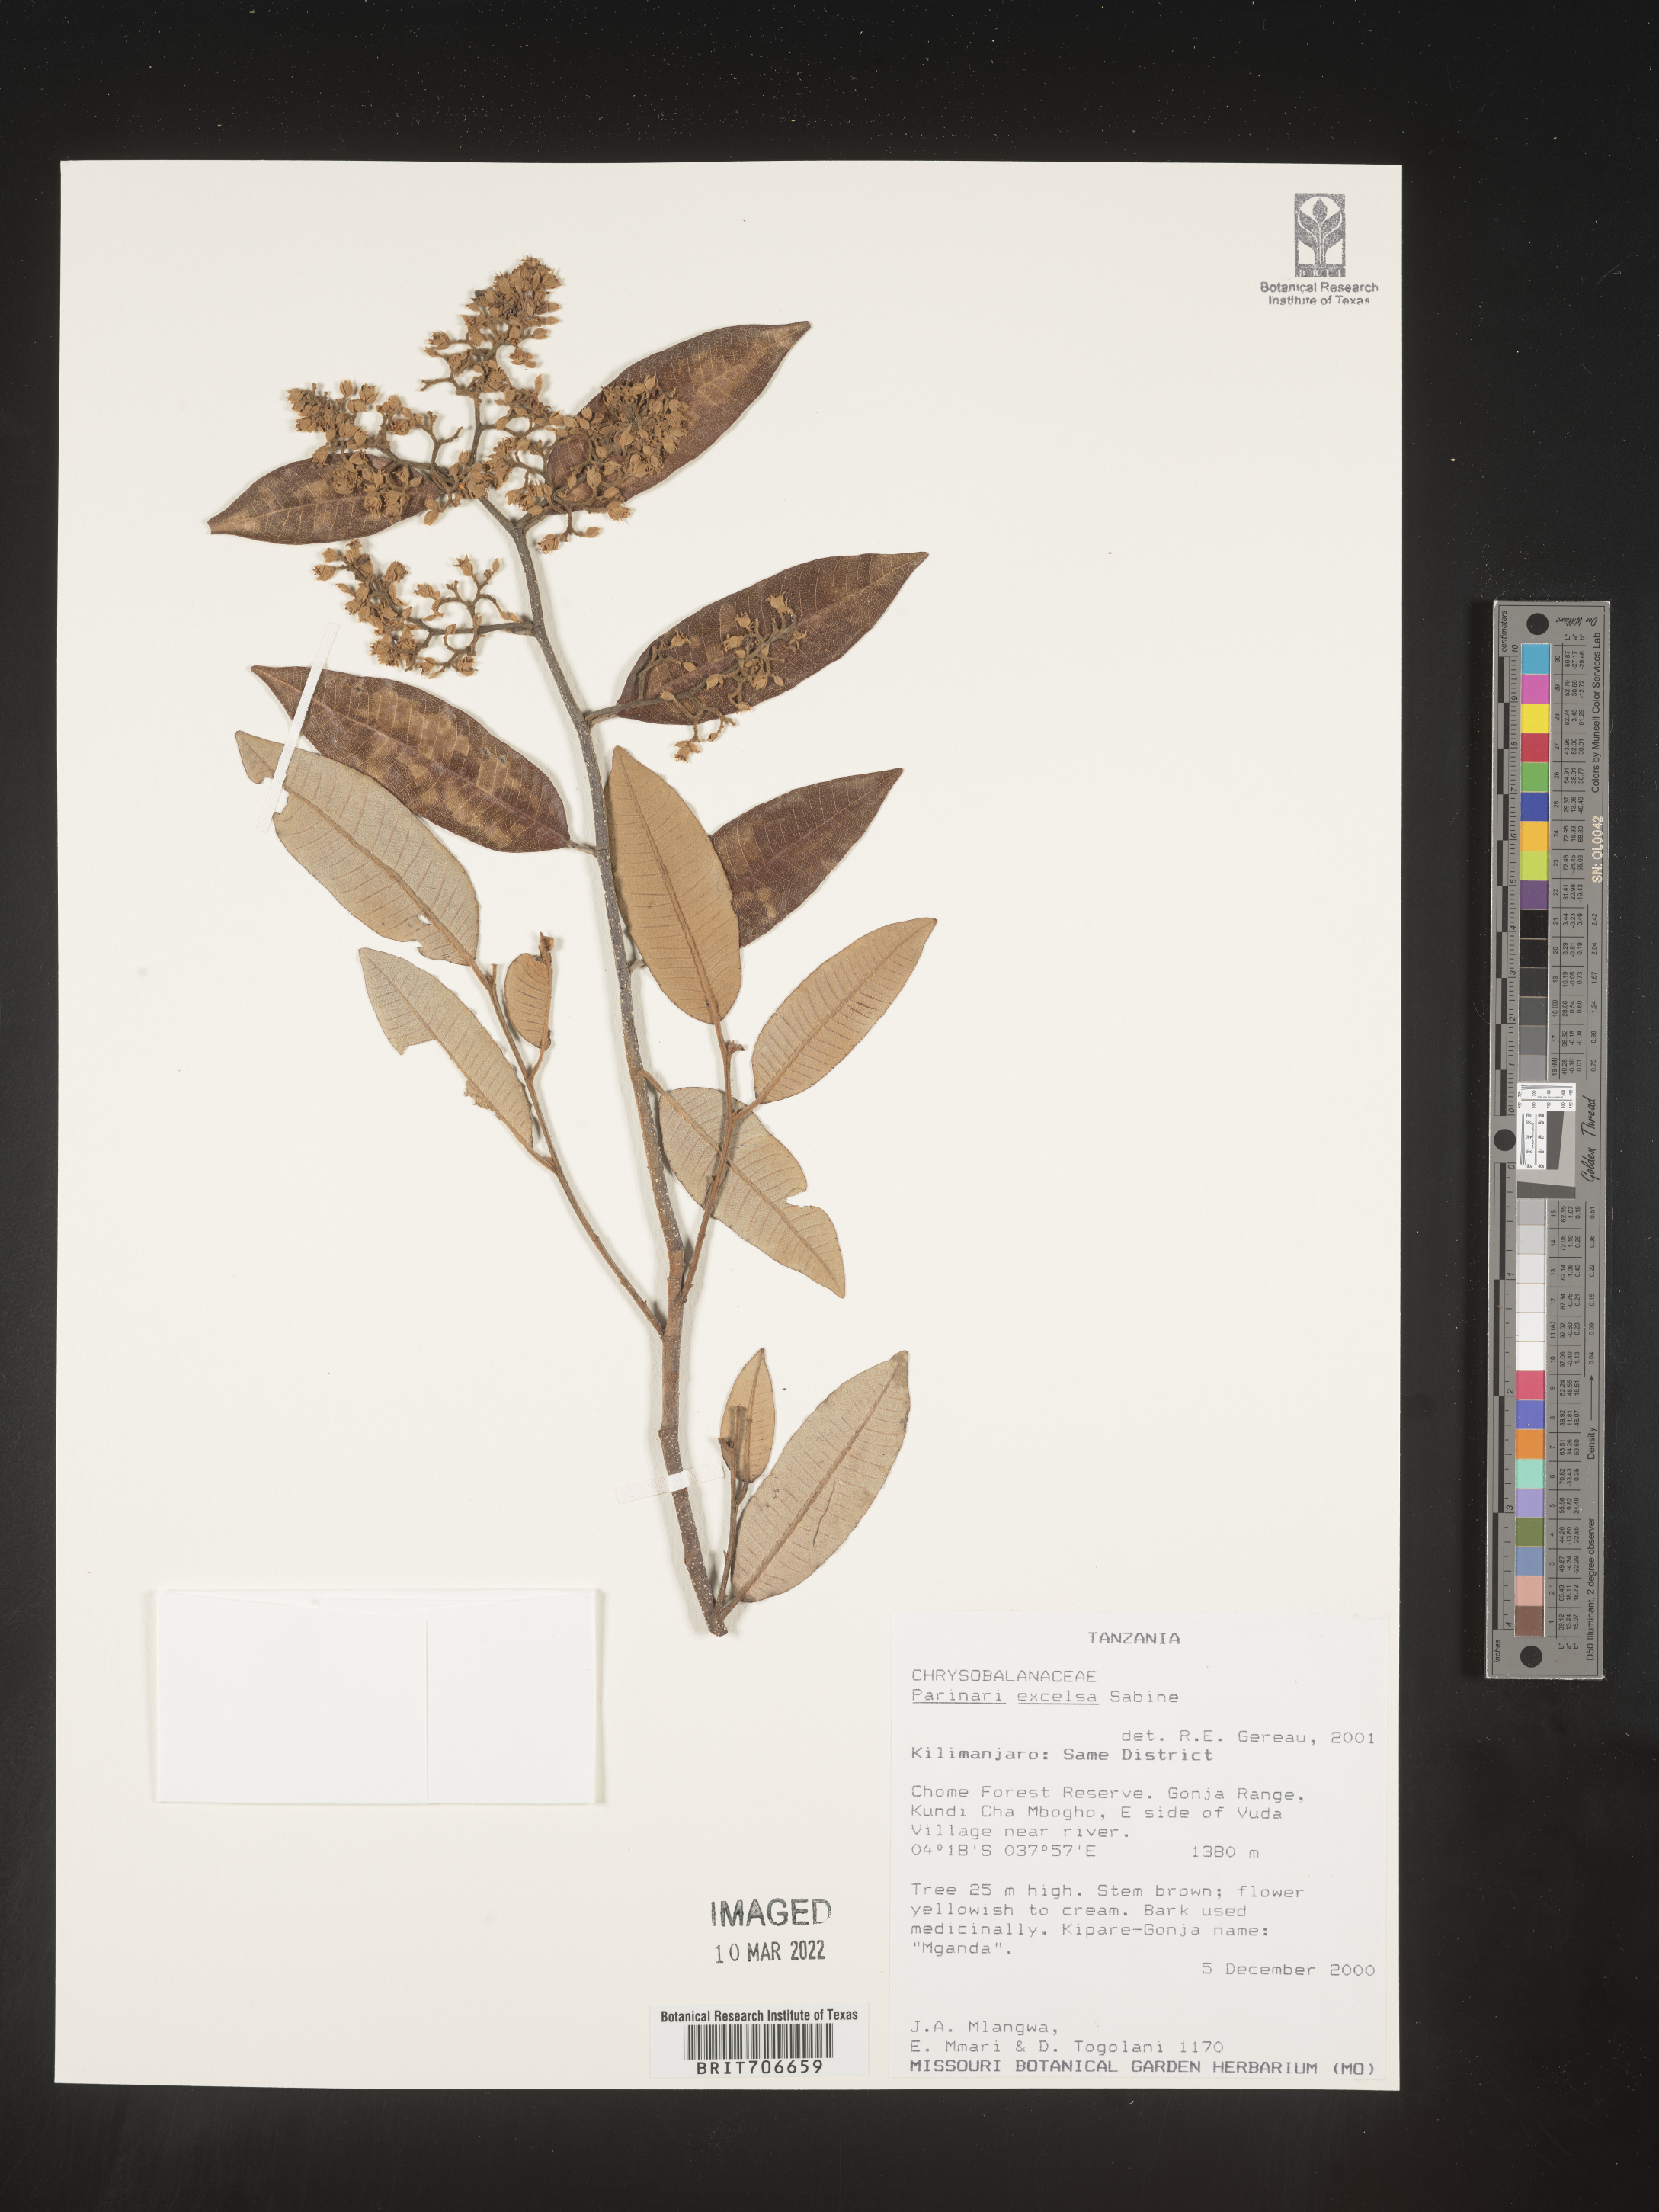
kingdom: Plantae
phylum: Tracheophyta
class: Magnoliopsida
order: Malpighiales
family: Chrysobalanaceae
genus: Parinari
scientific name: Parinari
